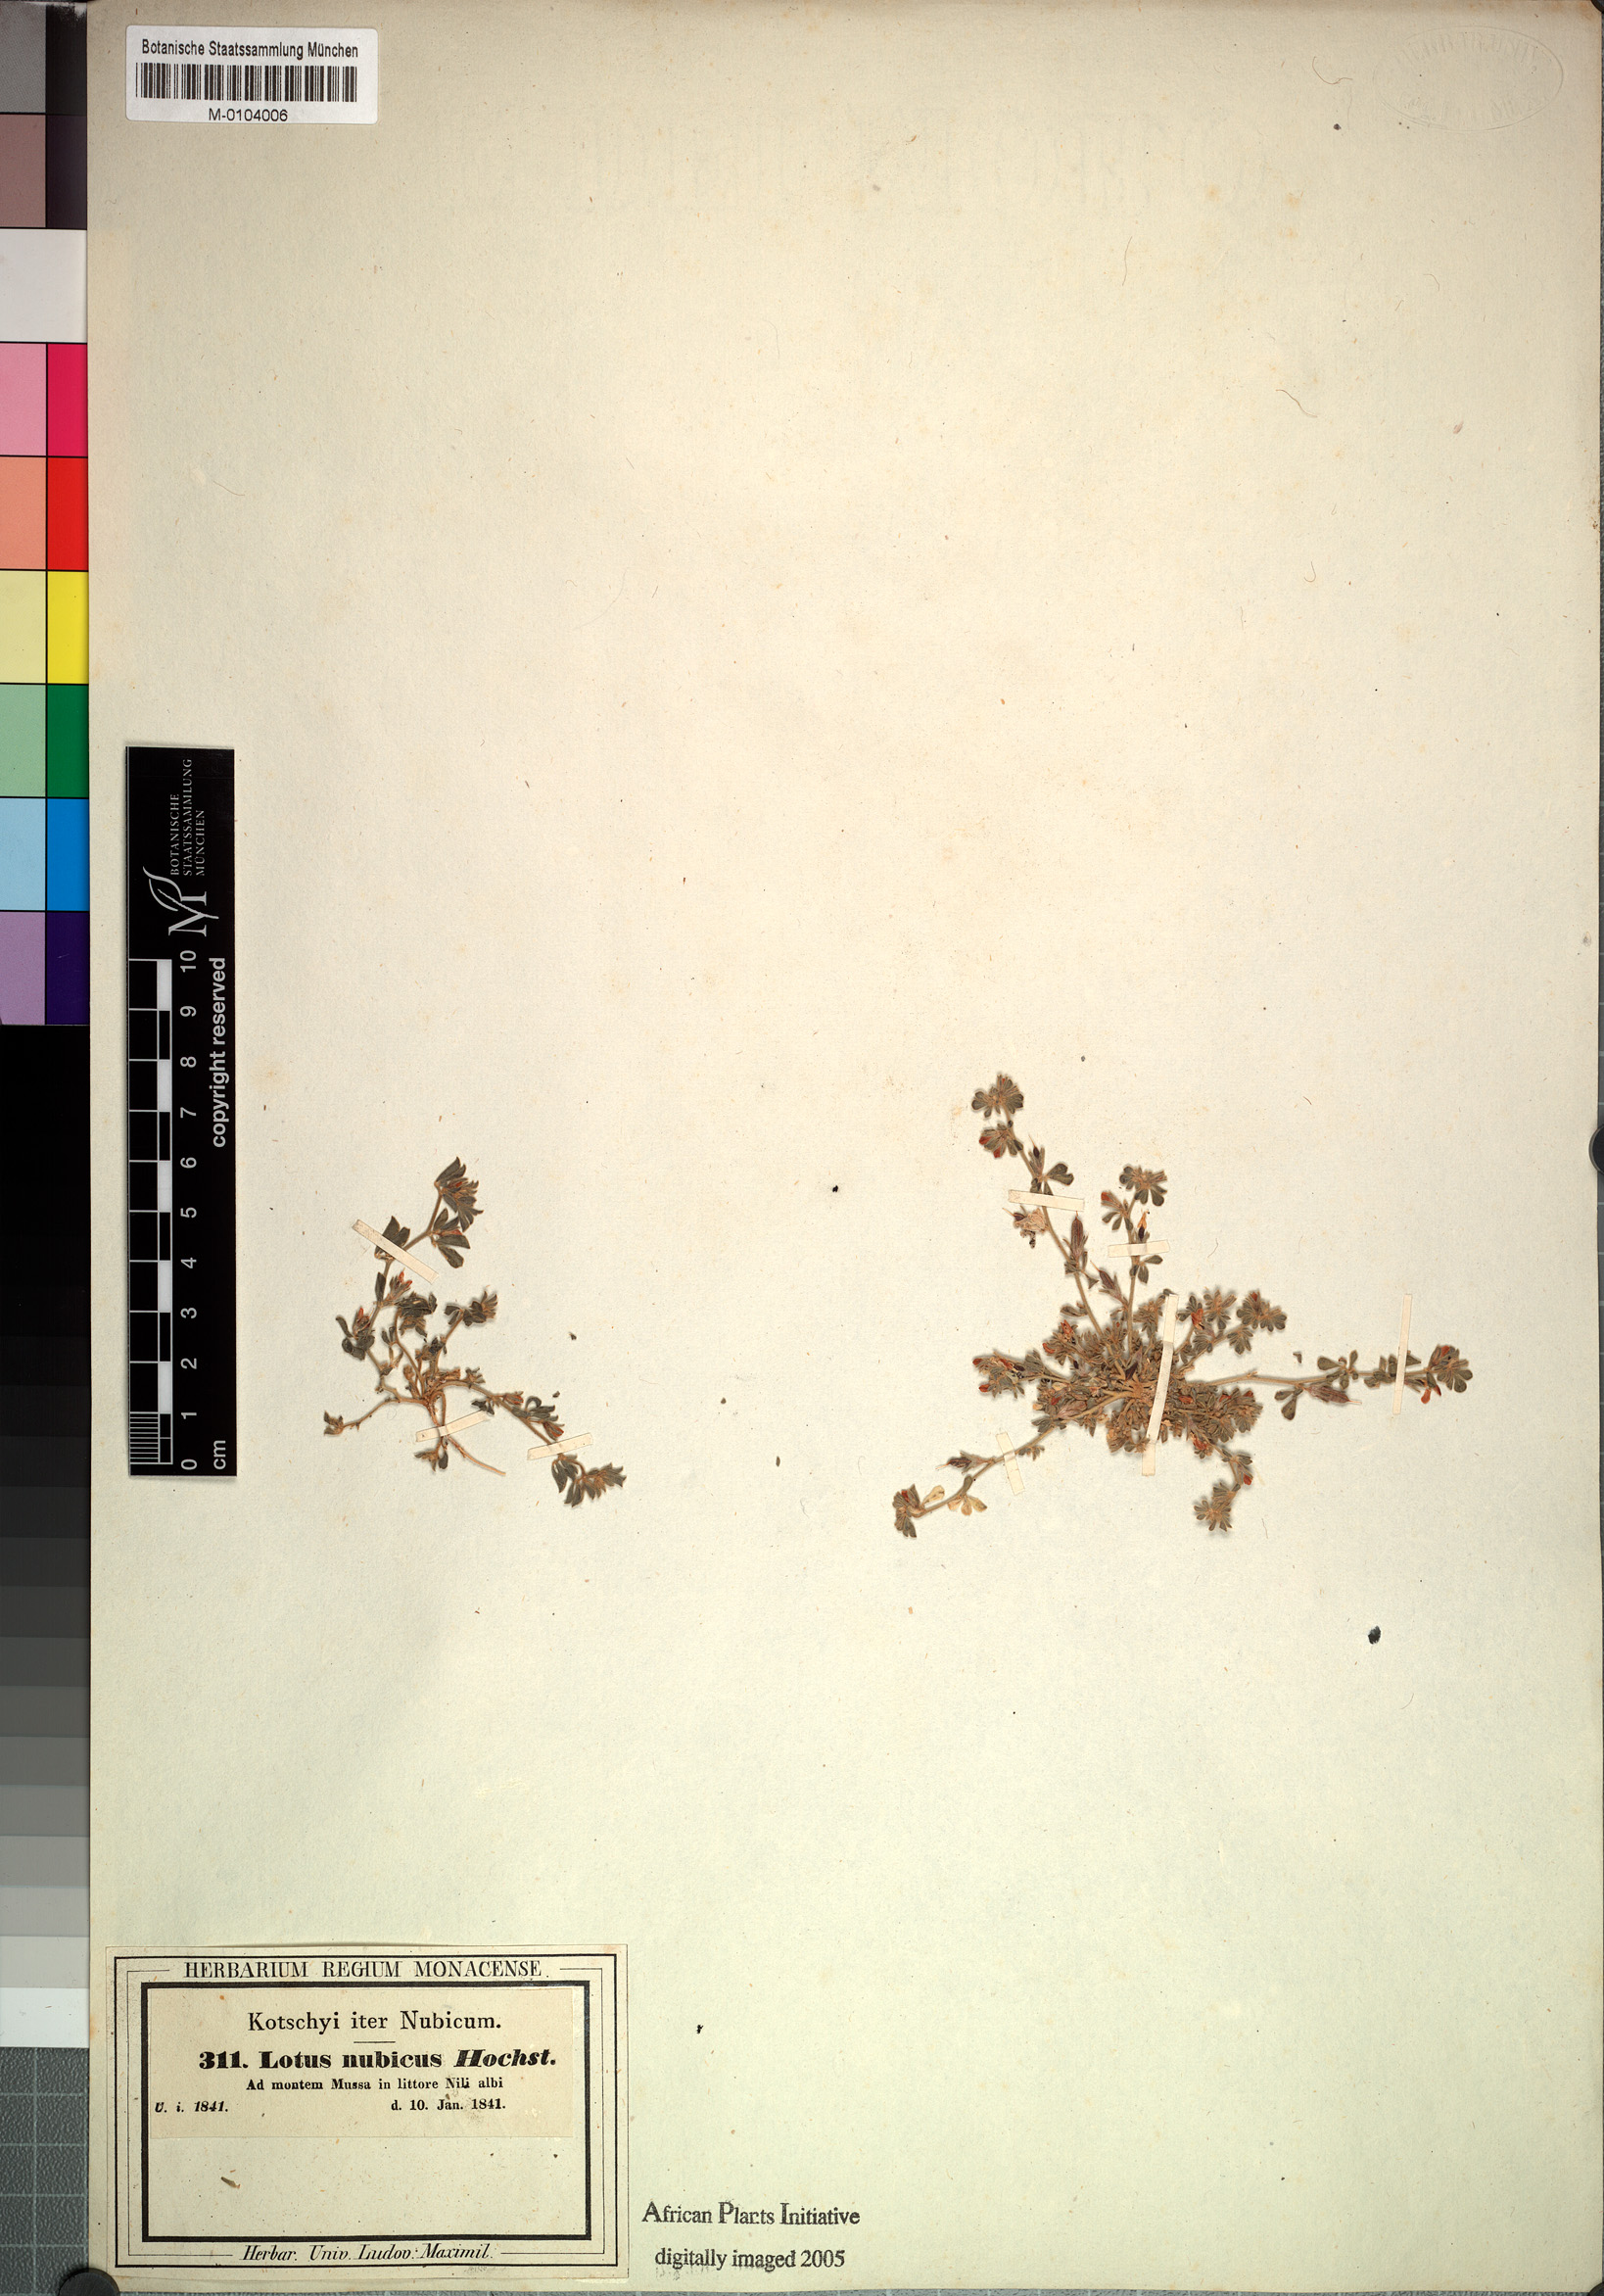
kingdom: Plantae
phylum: Tracheophyta
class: Magnoliopsida
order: Fabales
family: Fabaceae
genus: Lotus
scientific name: Lotus nubicus
